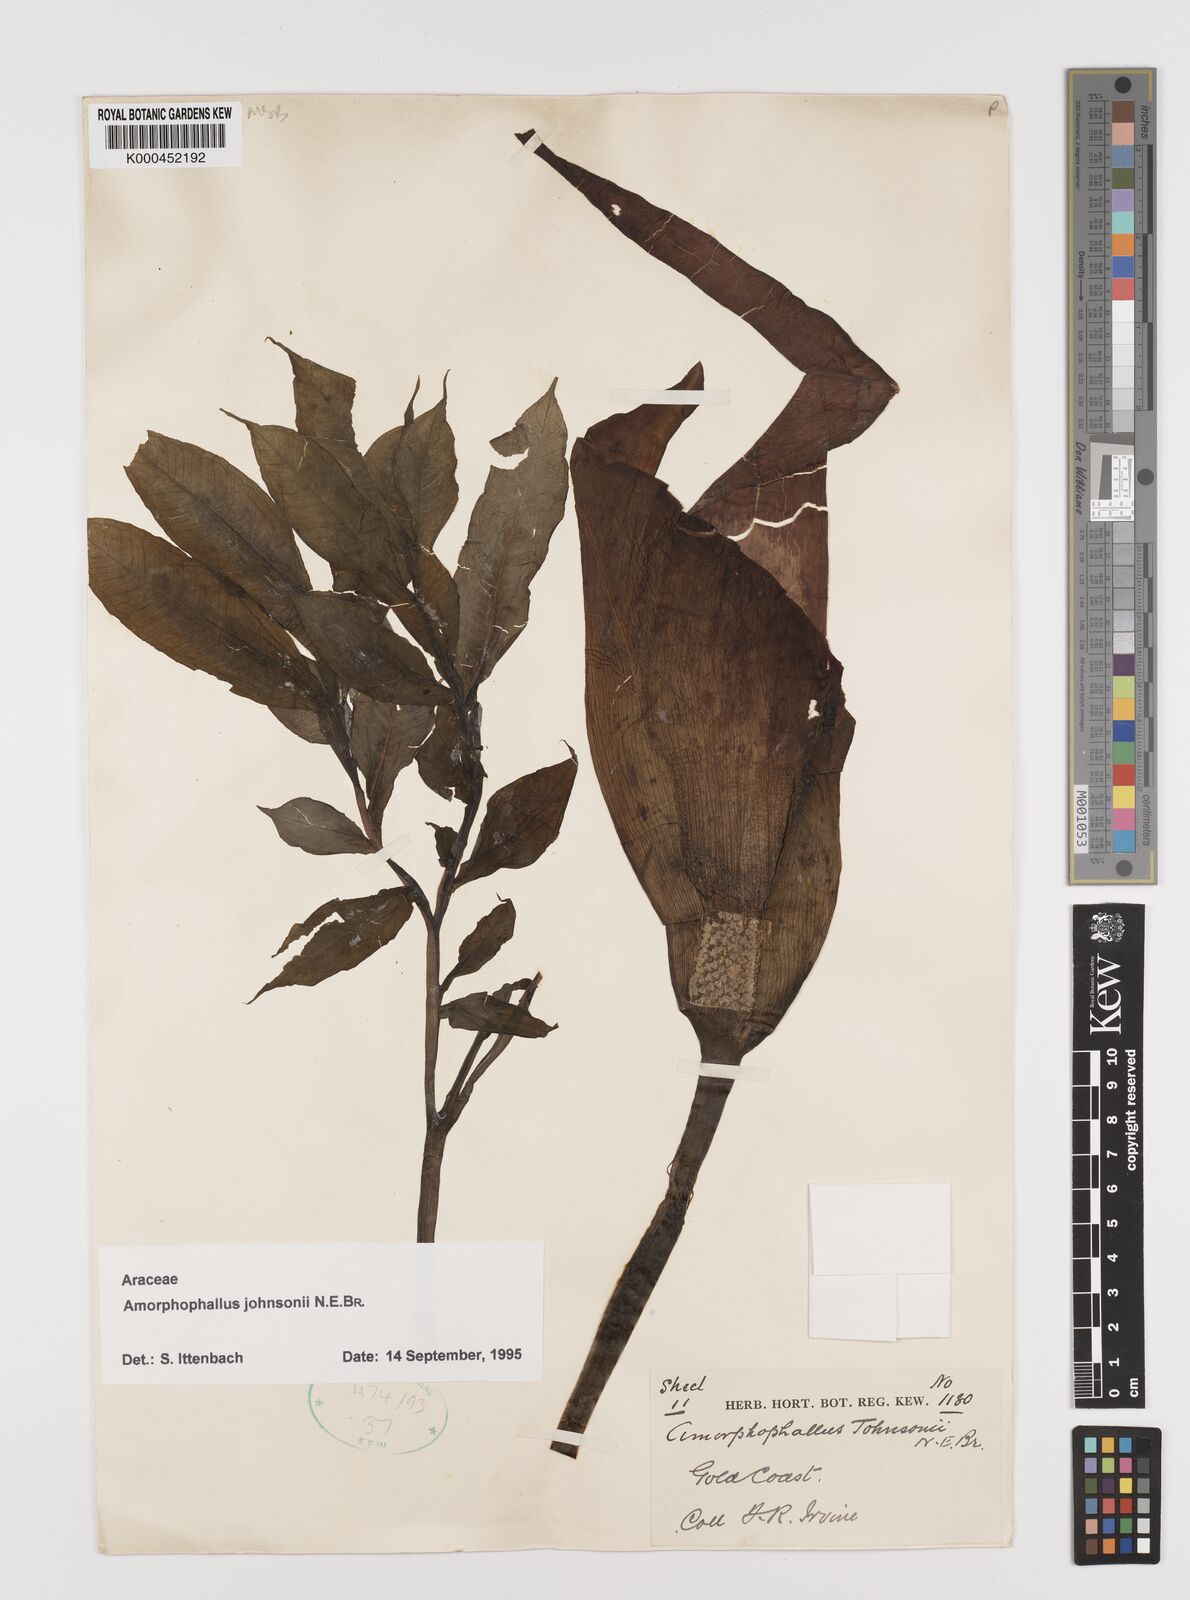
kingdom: Plantae
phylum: Tracheophyta
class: Liliopsida
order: Alismatales
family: Araceae
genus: Amorphophallus
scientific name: Amorphophallus johnsonii
